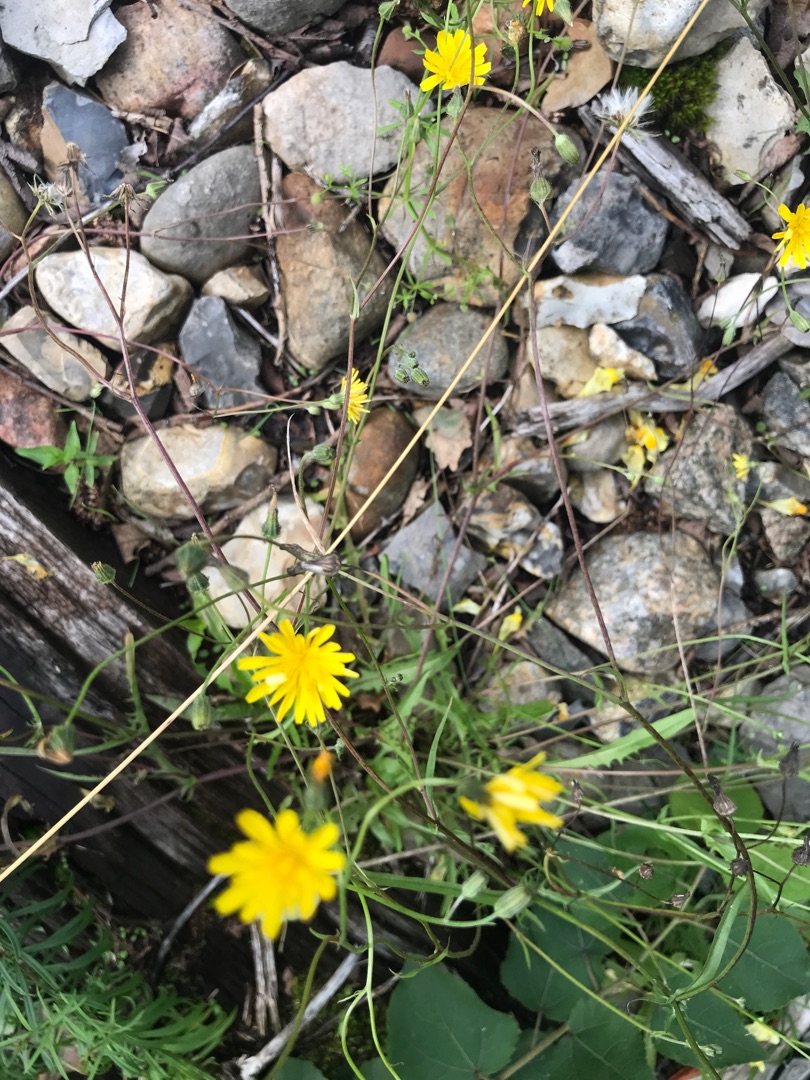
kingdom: Plantae
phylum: Tracheophyta
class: Magnoliopsida
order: Asterales
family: Asteraceae
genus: Crepis
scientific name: Crepis capillaris
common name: Grøn høgeskæg
